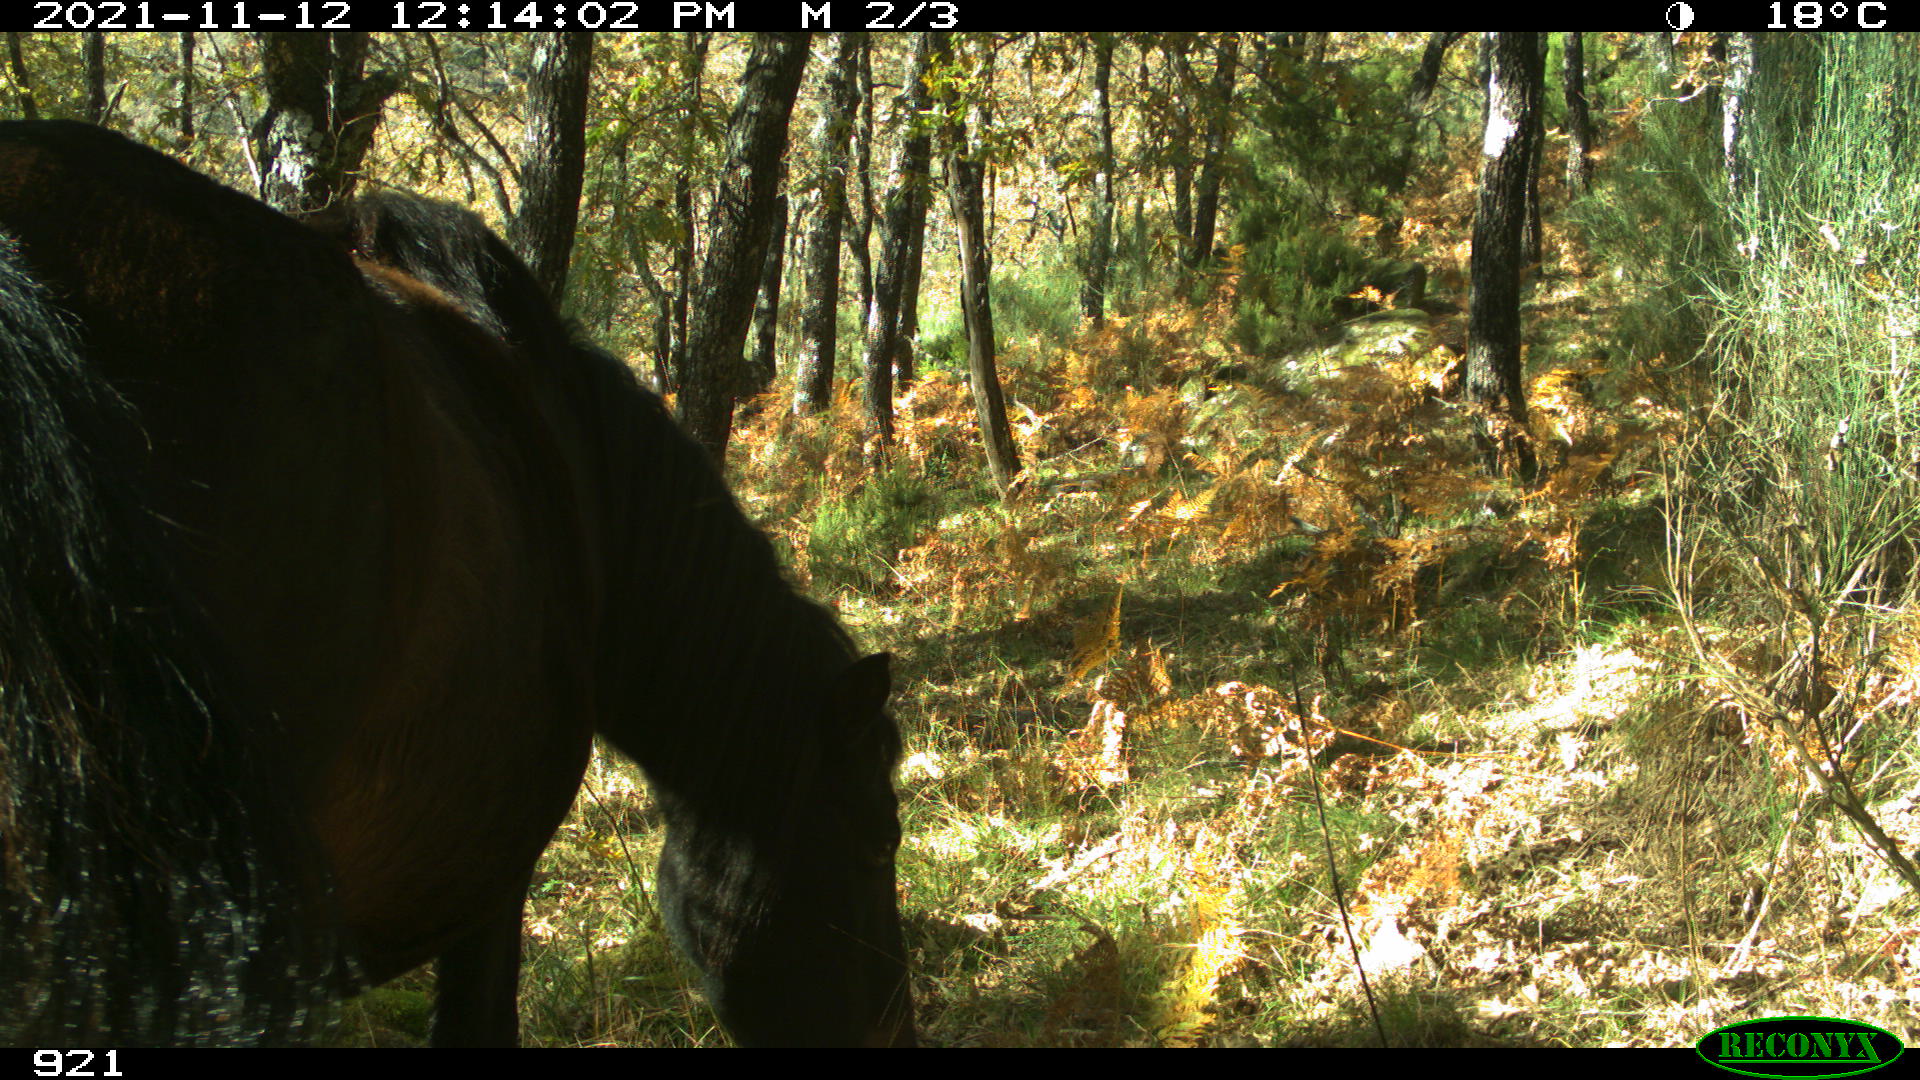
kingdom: Animalia
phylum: Chordata
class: Mammalia
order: Perissodactyla
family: Equidae
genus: Equus
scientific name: Equus caballus
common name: Horse
